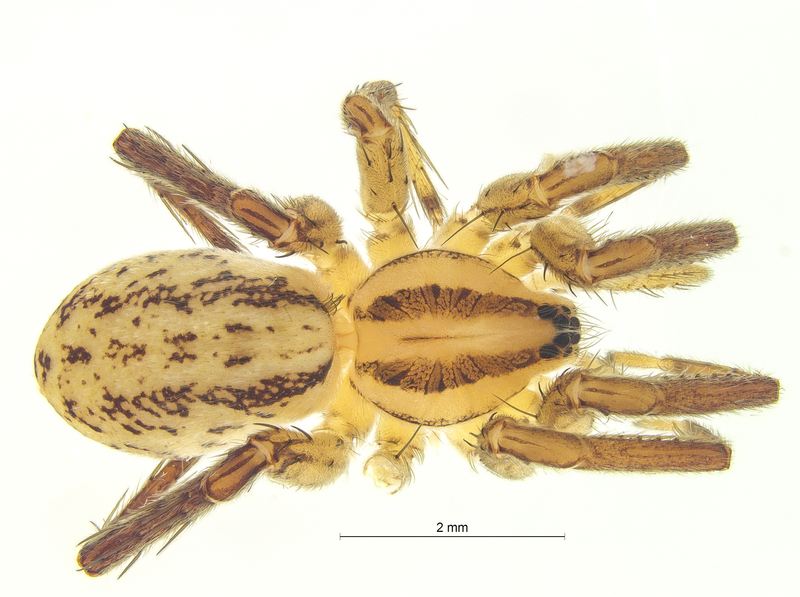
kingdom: Animalia
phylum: Arthropoda
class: Arachnida
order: Araneae
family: Miturgidae
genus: Zora
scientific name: Zora spinimana
